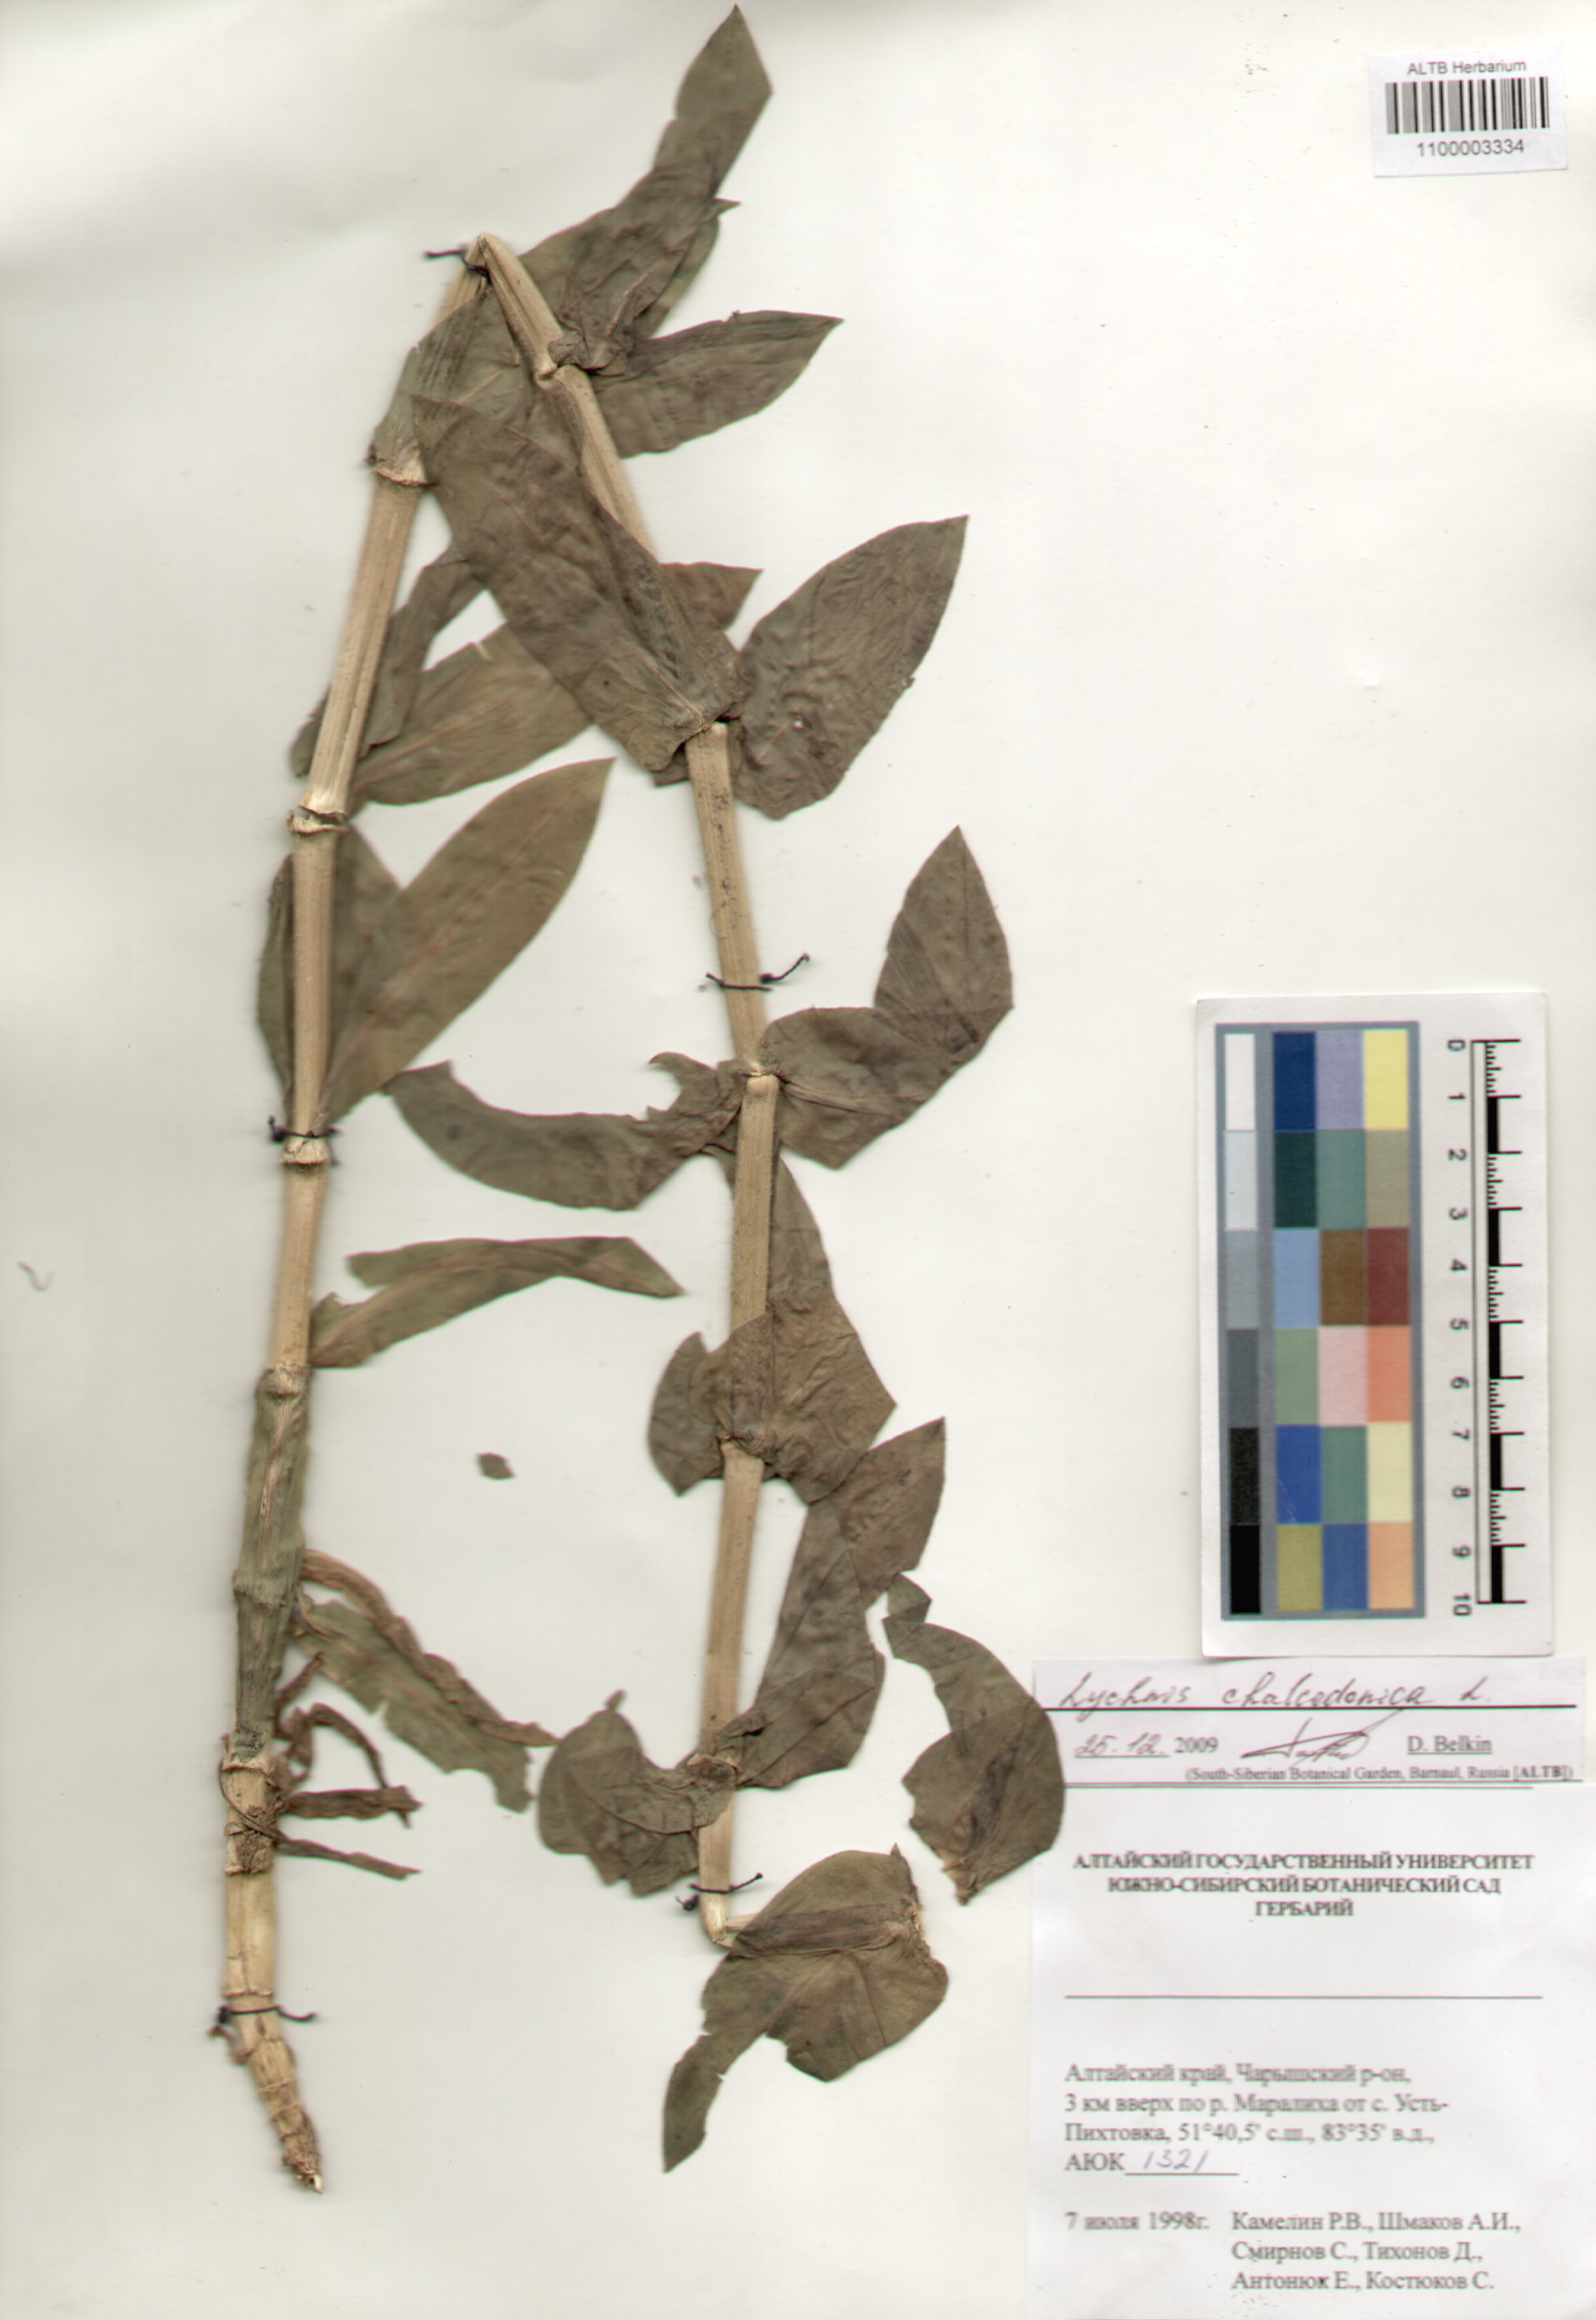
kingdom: Plantae
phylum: Tracheophyta
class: Magnoliopsida
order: Caryophyllales
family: Caryophyllaceae
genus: Silene
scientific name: Silene chalcedonica
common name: Maltese-cross
